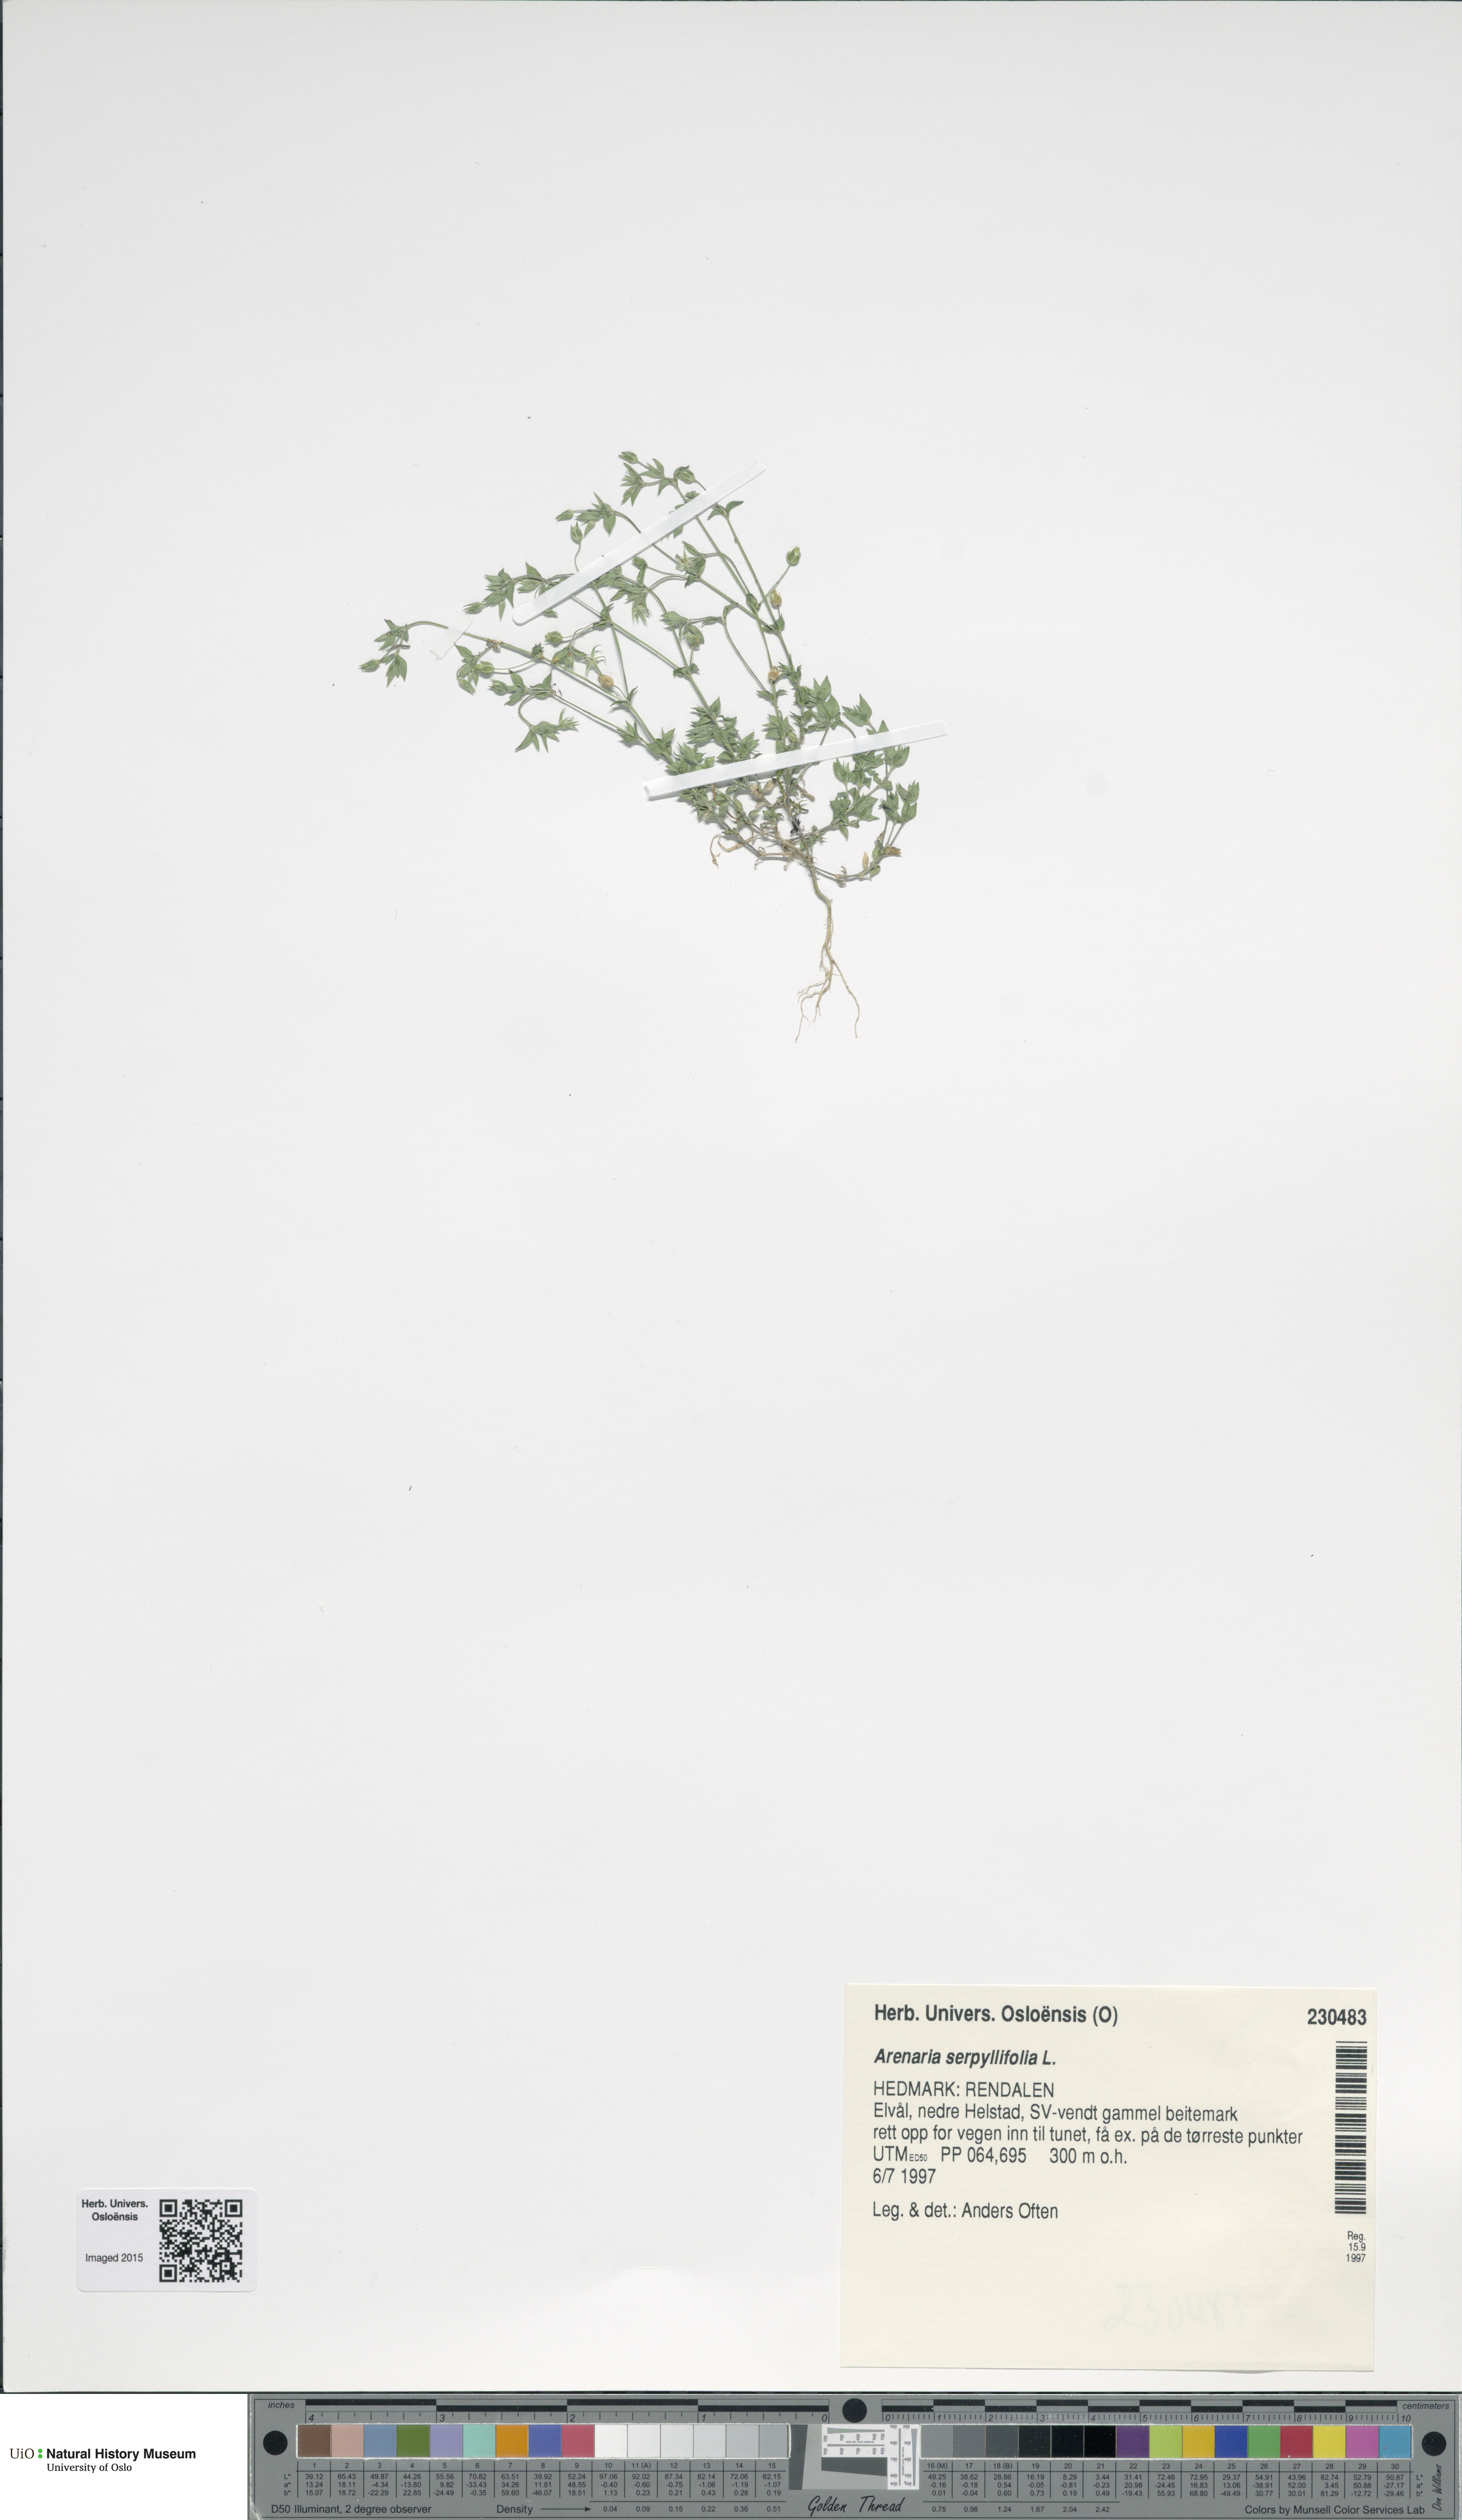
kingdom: Plantae
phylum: Tracheophyta
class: Magnoliopsida
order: Caryophyllales
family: Caryophyllaceae
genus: Arenaria
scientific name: Arenaria serpyllifolia
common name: Thyme-leaved sandwort
